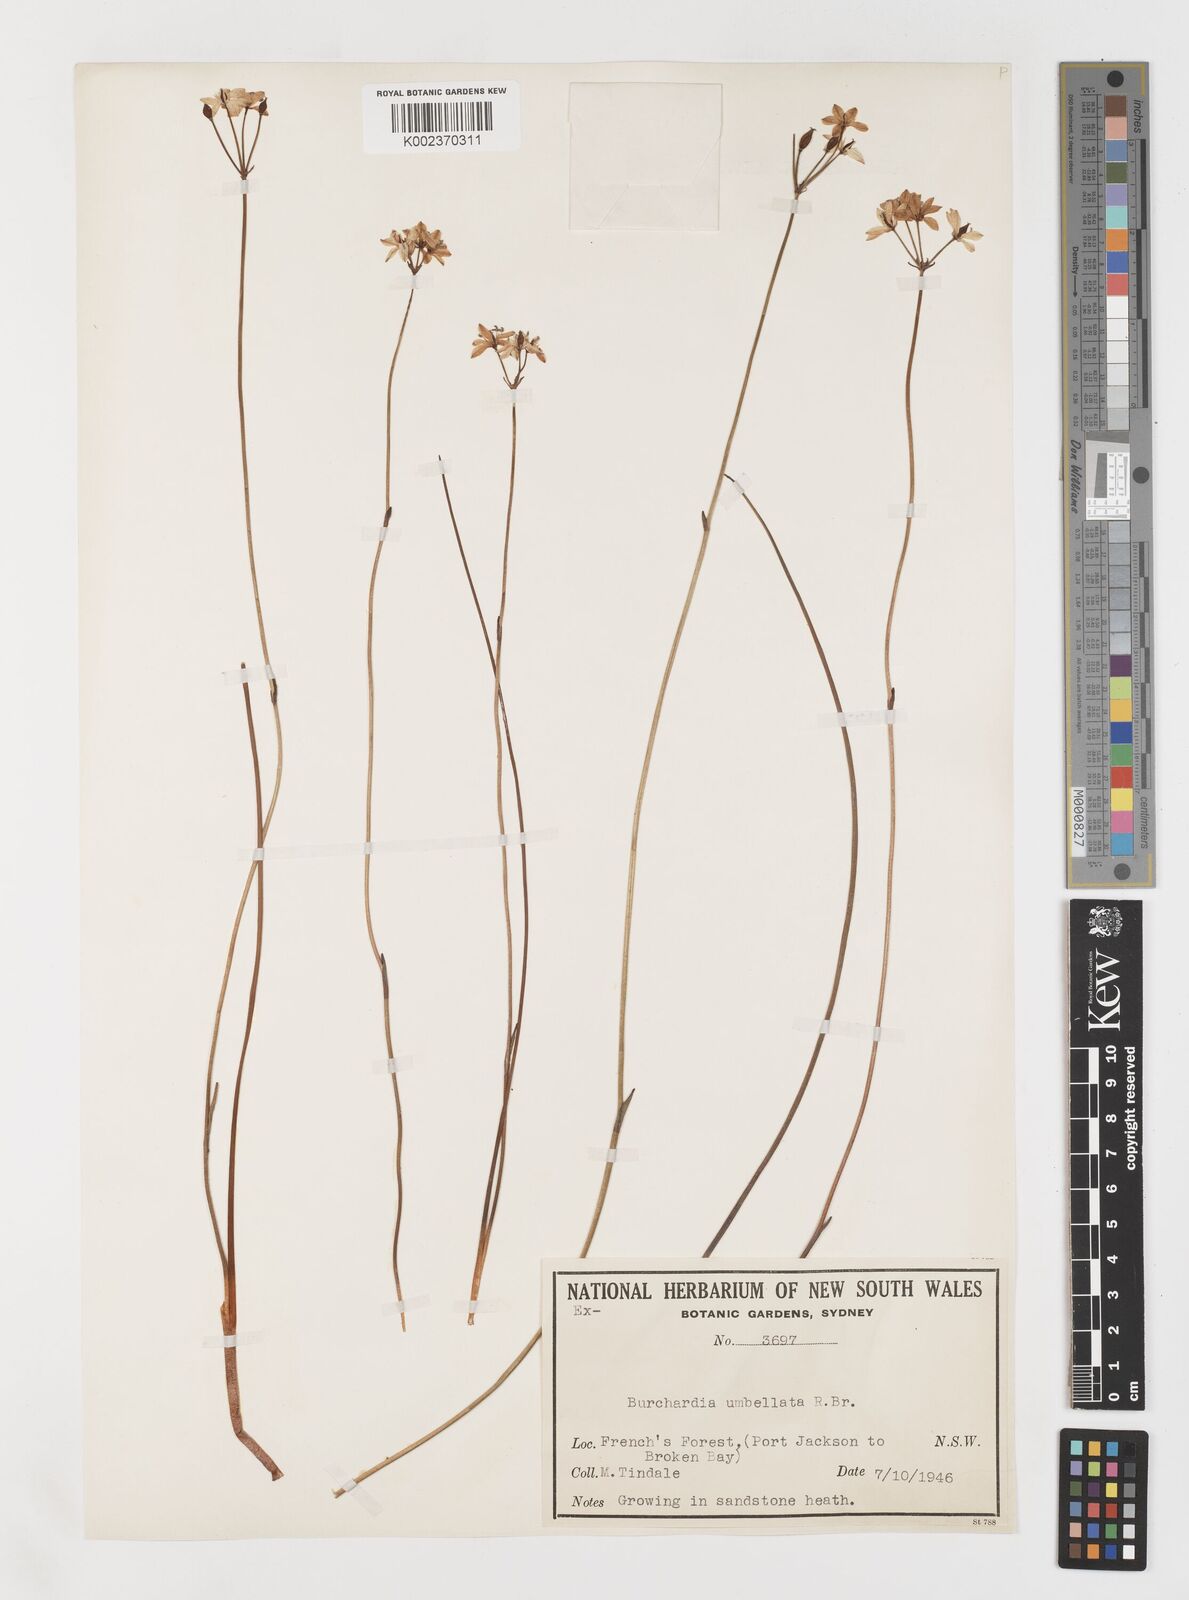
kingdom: Plantae
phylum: Tracheophyta
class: Liliopsida
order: Liliales
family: Colchicaceae
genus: Burchardia
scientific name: Burchardia umbellata
